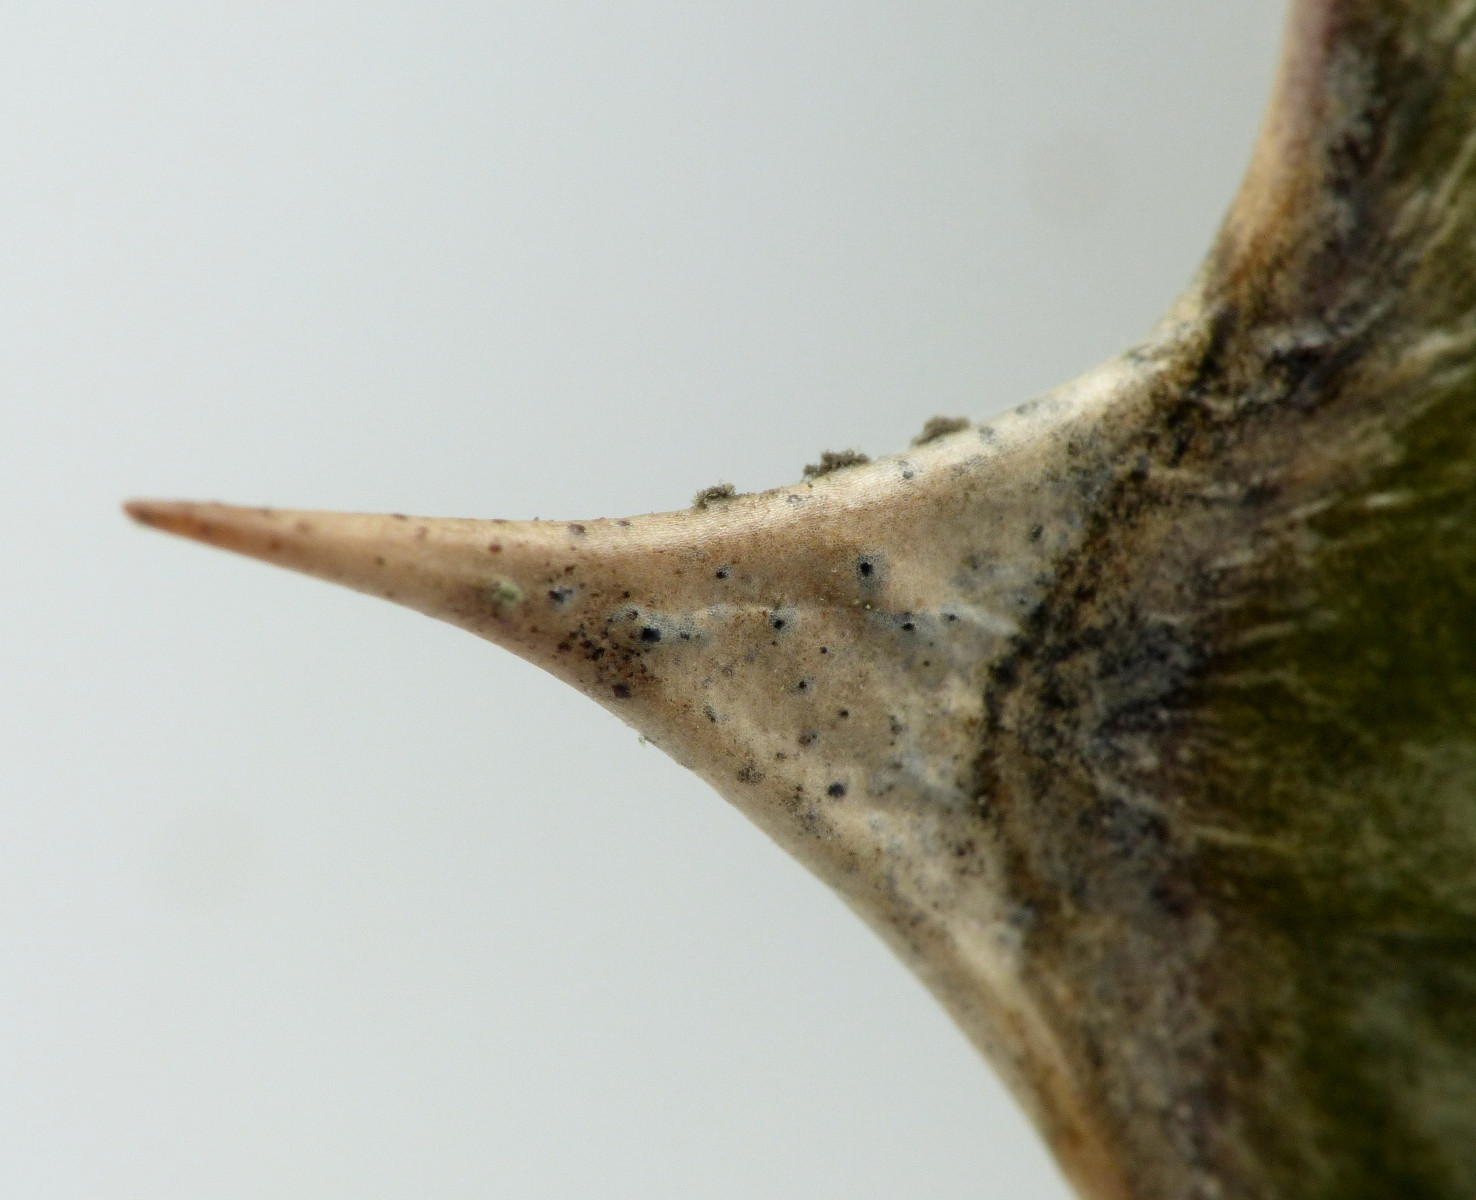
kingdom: Fungi
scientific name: Fungi
